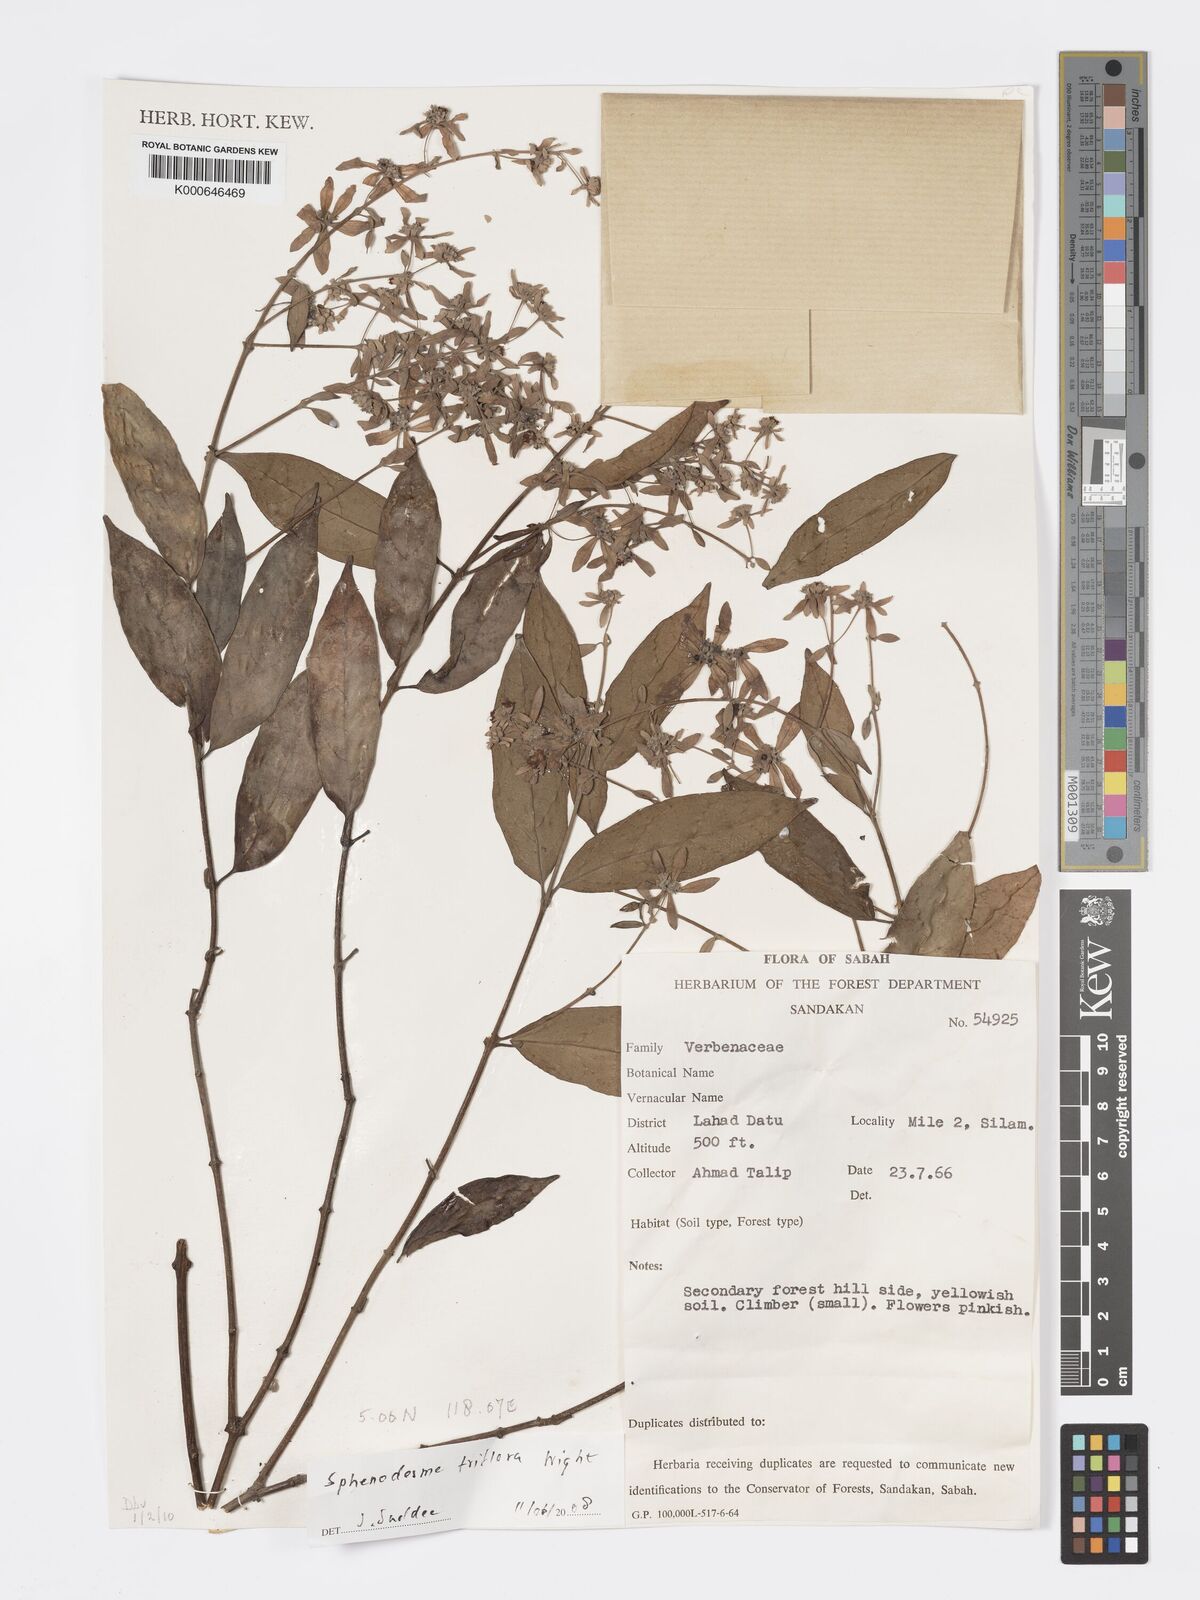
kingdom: Plantae
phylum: Tracheophyta
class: Magnoliopsida
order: Lamiales
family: Lamiaceae
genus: Sphenodesme
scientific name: Sphenodesme triflora
